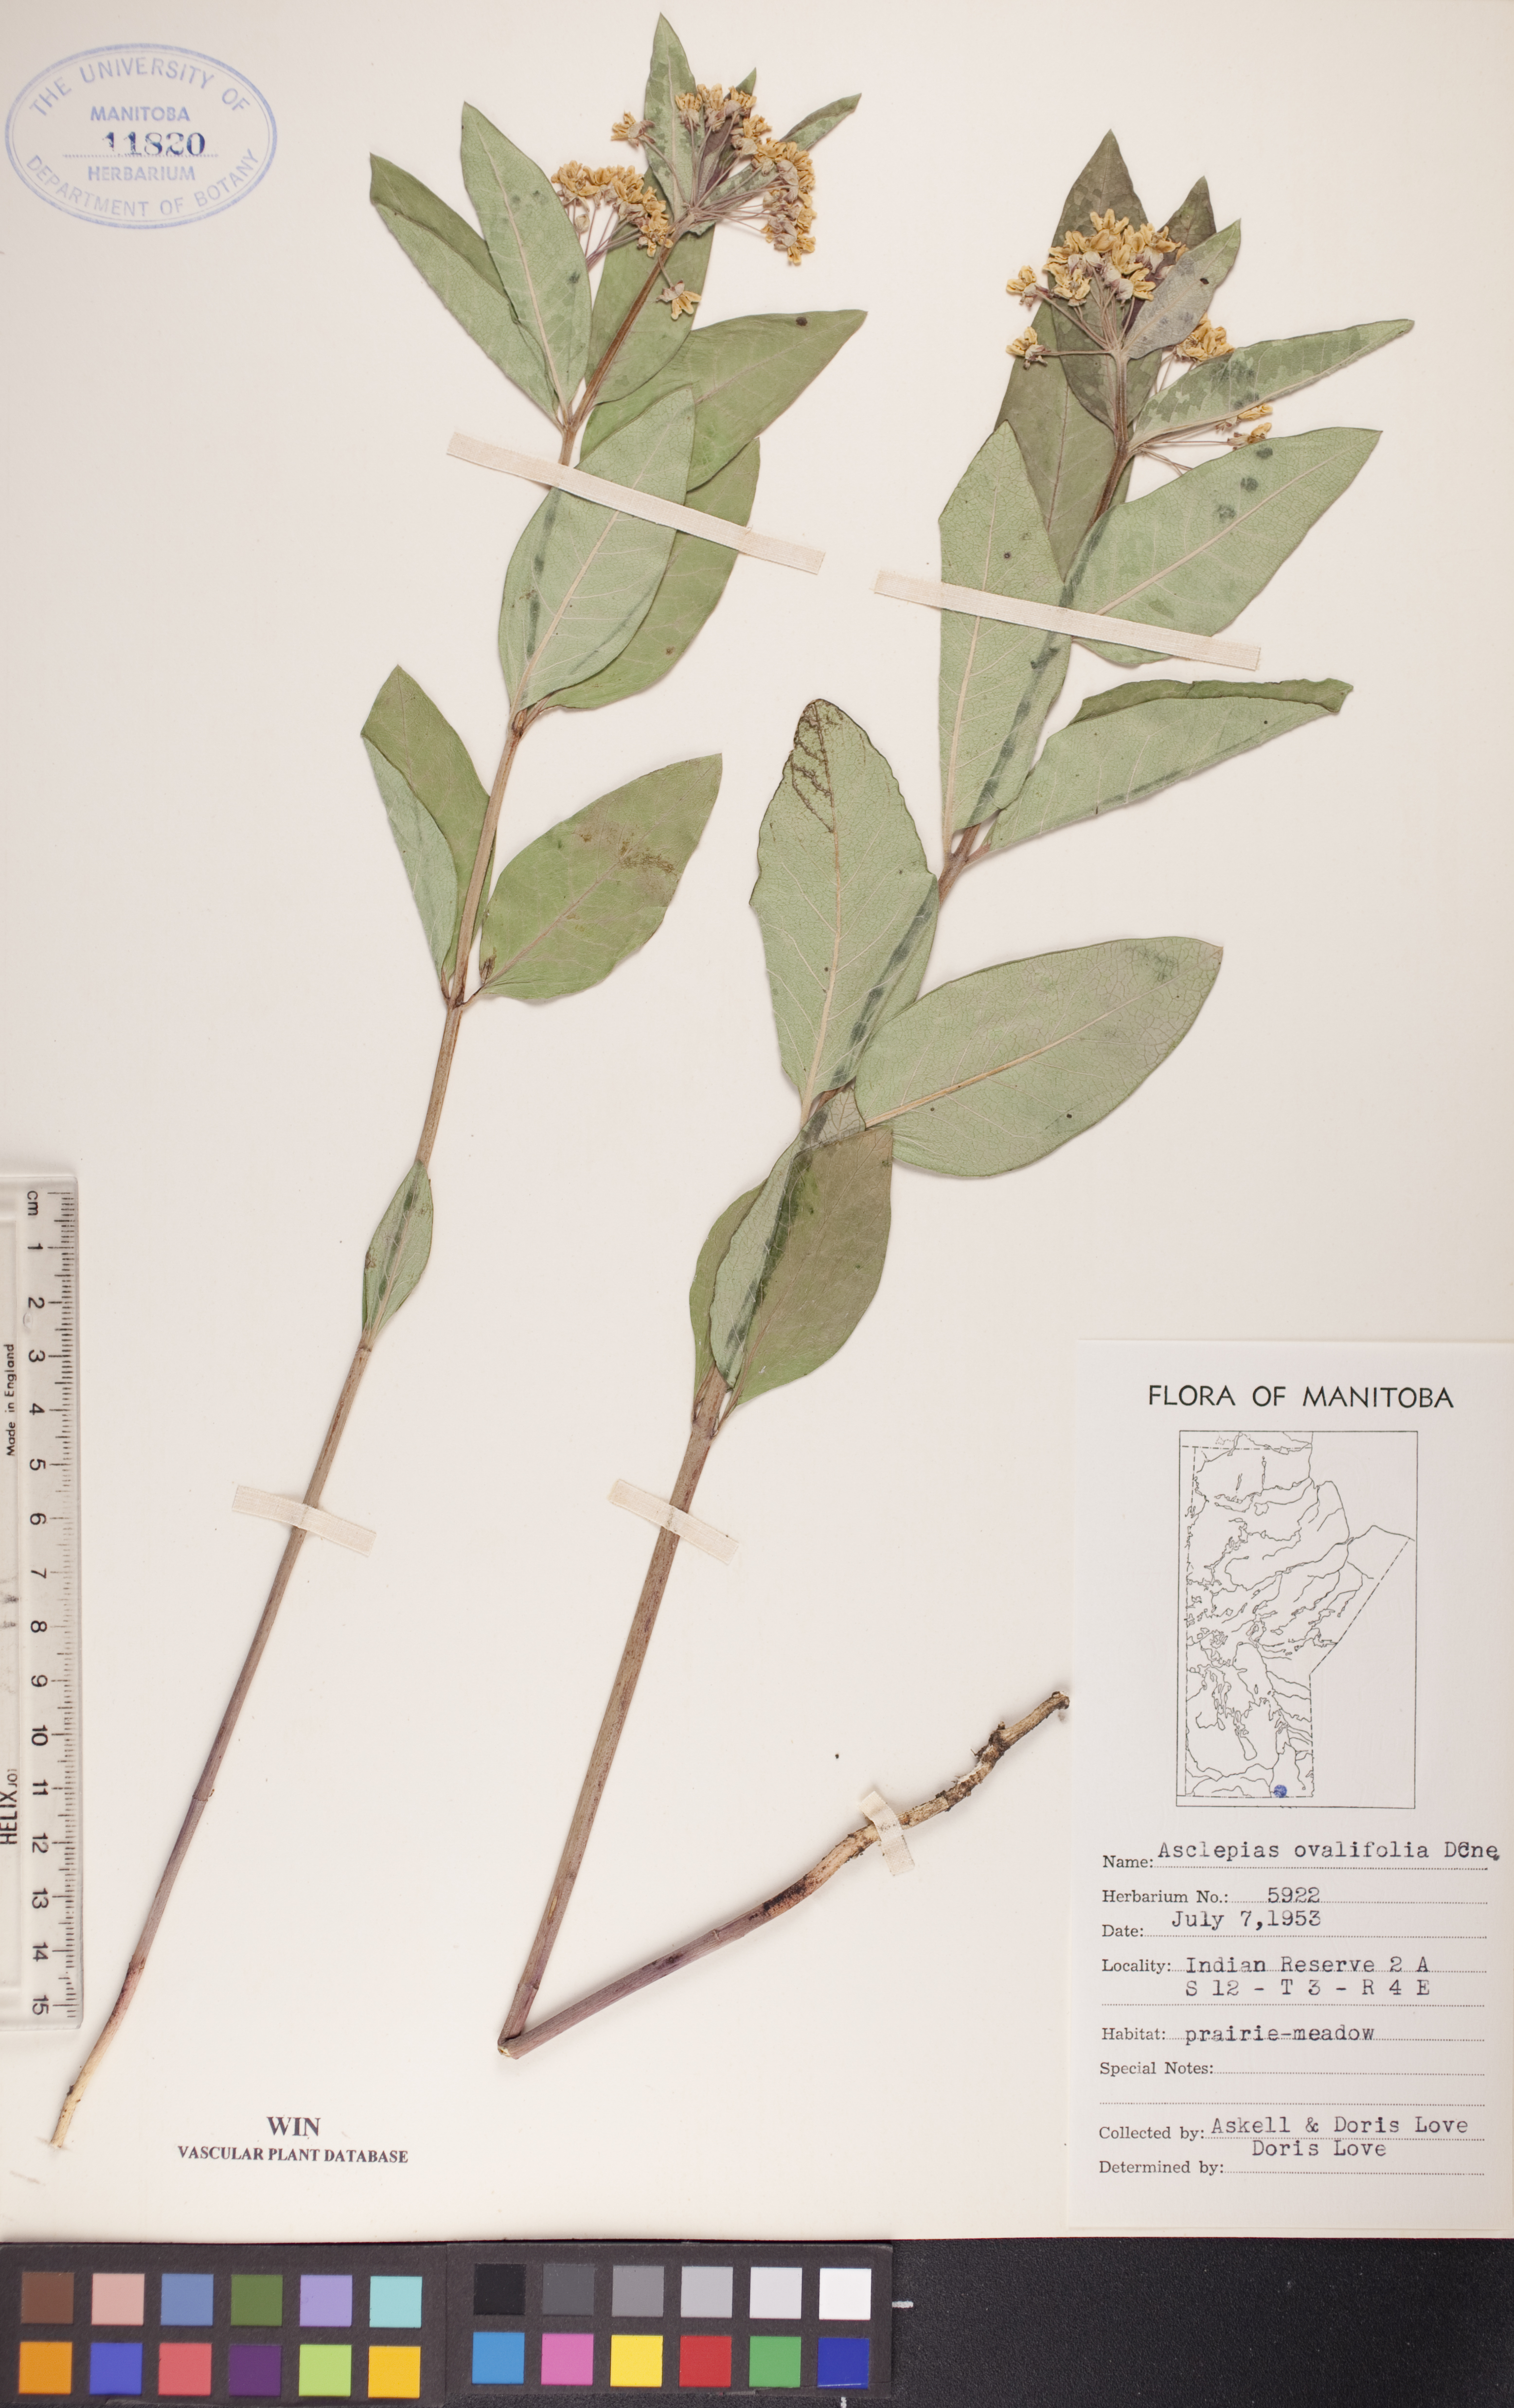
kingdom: Plantae
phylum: Tracheophyta
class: Magnoliopsida
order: Gentianales
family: Apocynaceae
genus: Asclepias
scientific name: Asclepias ovalifolia
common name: Dwarf milkweed
